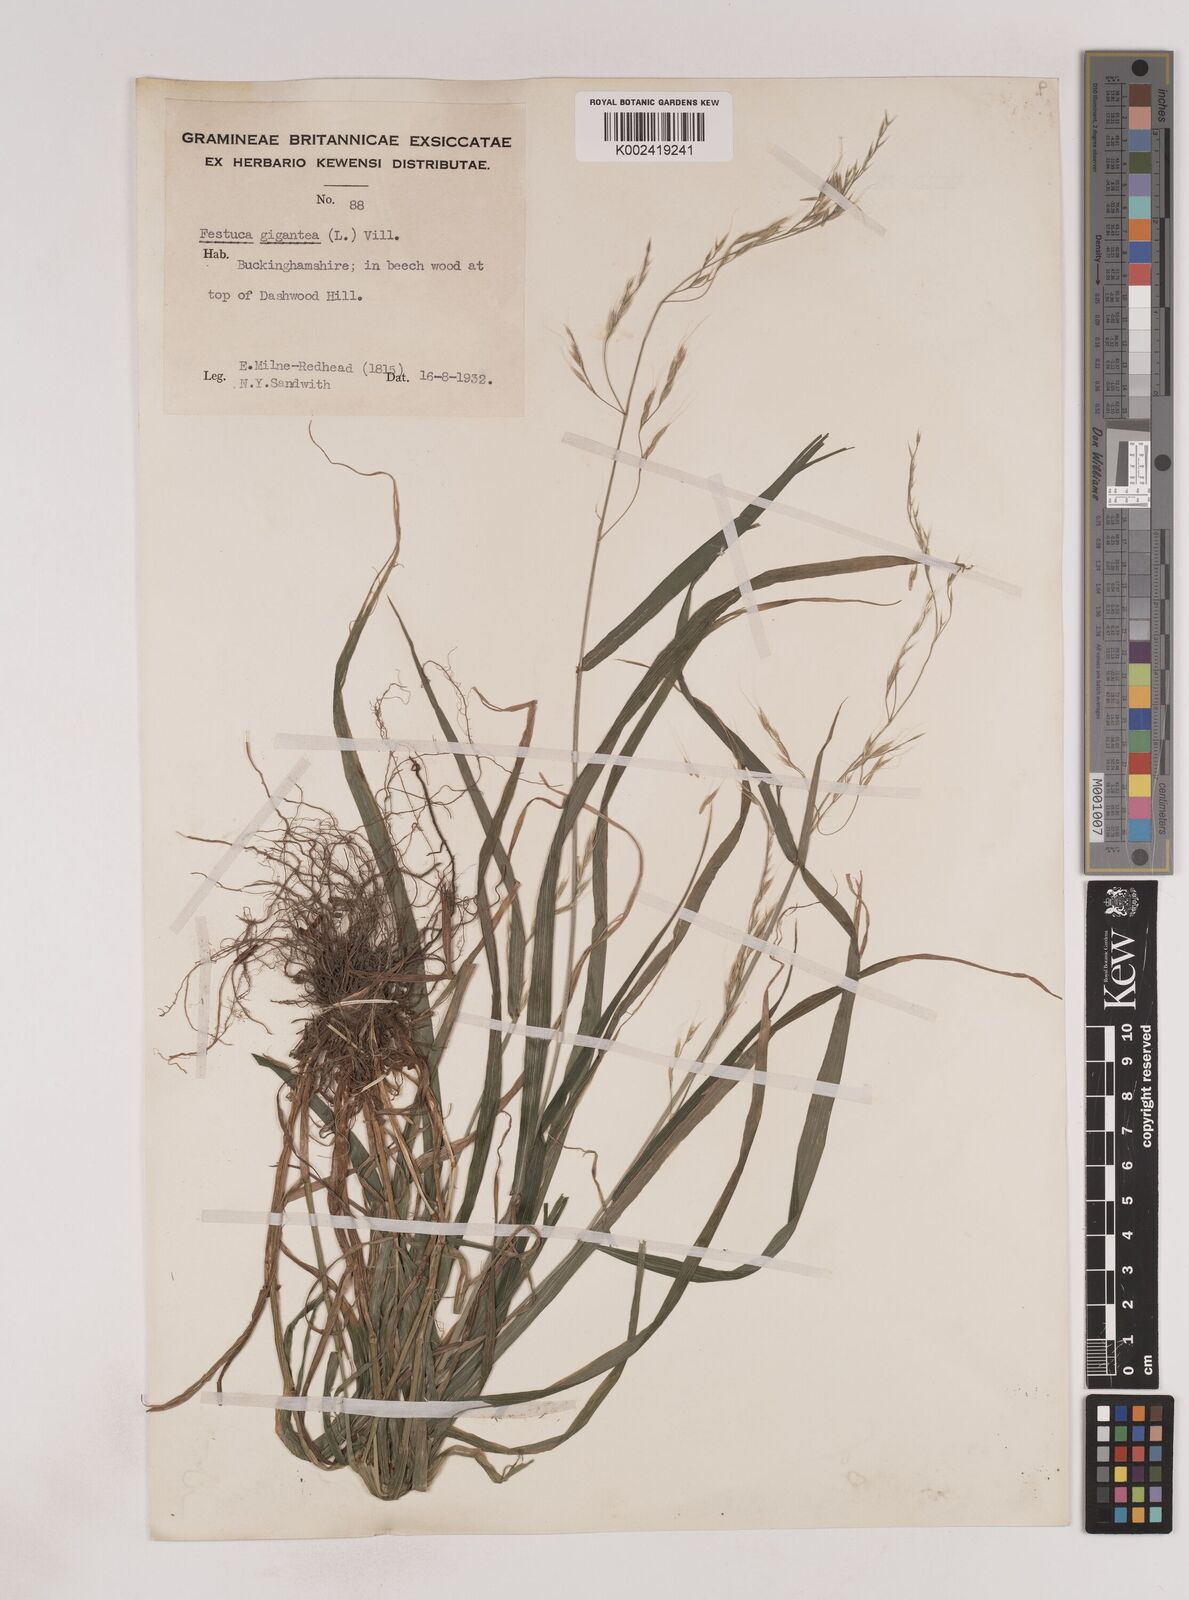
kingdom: Plantae
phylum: Tracheophyta
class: Liliopsida
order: Poales
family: Poaceae
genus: Lolium
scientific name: Lolium giganteum
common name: Giant fescue
